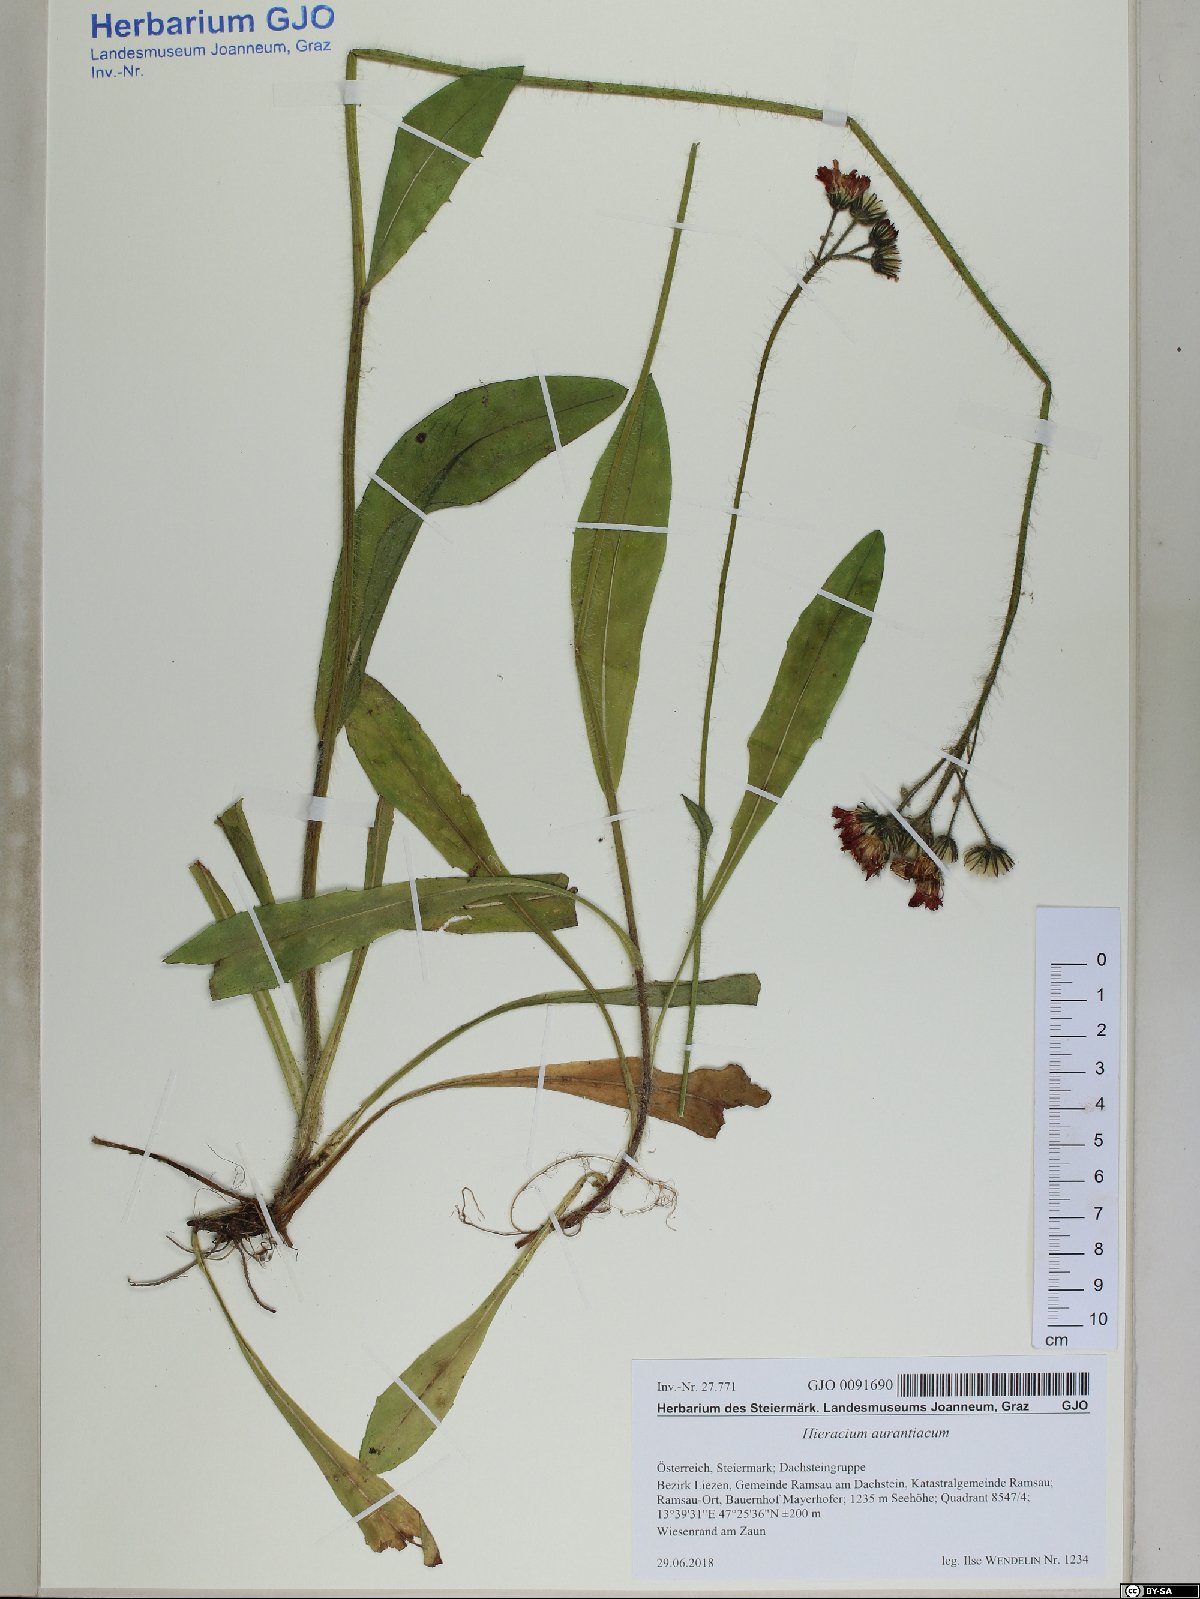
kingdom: Plantae
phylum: Tracheophyta
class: Magnoliopsida
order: Asterales
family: Asteraceae
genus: Pilosella
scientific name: Pilosella aurantiaca
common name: Fox-and-cubs
